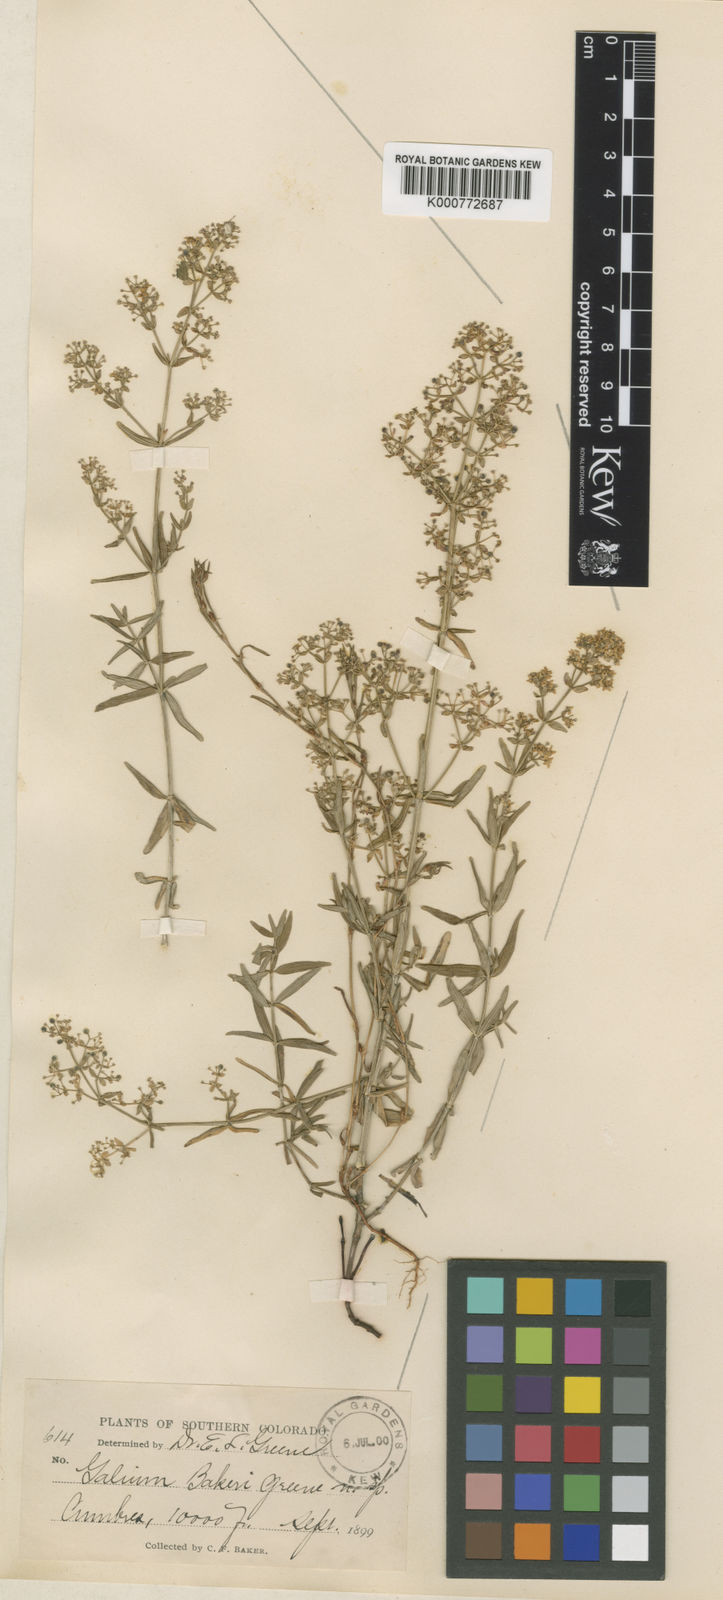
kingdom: Plantae
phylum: Tracheophyta
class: Magnoliopsida
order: Gentianales
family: Rubiaceae
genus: Galium
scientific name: Galium
